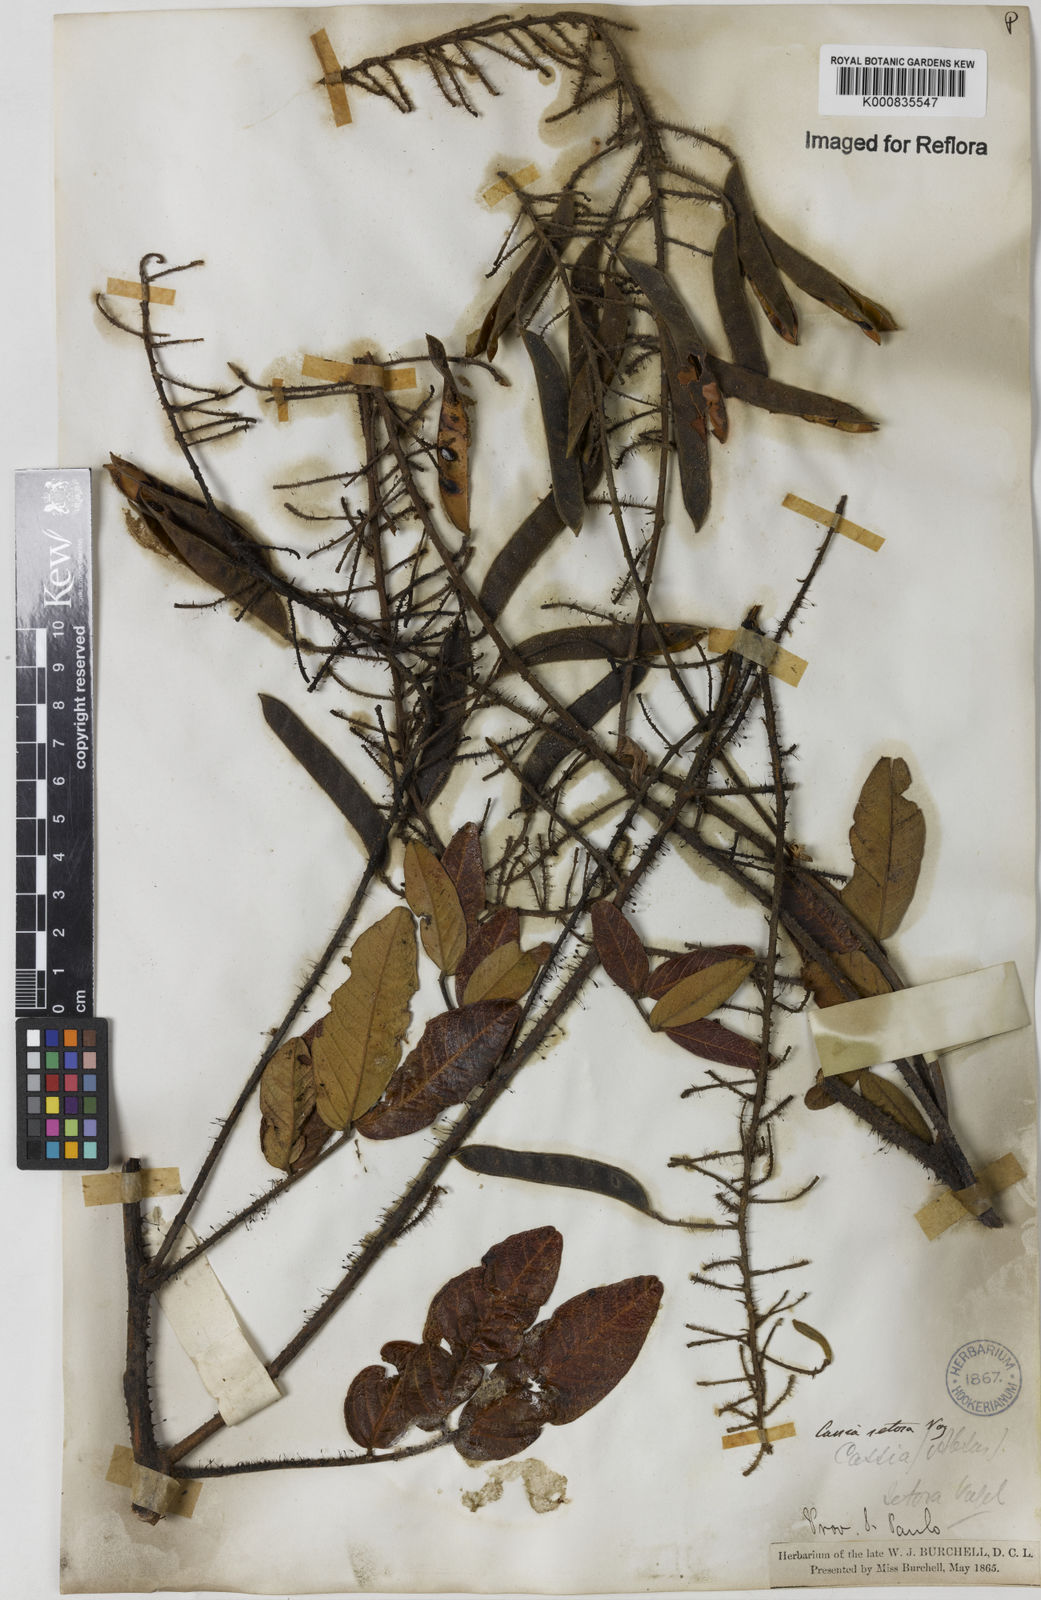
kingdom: Plantae
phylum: Tracheophyta
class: Magnoliopsida
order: Fabales
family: Fabaceae
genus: Chamaecrista
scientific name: Chamaecrista setosa
